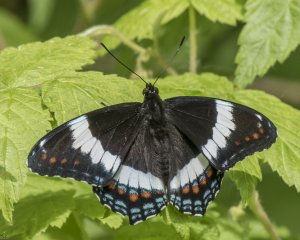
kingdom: Animalia
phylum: Arthropoda
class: Insecta
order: Lepidoptera
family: Nymphalidae
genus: Limenitis
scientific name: Limenitis arthemis
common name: Red-spotted Admiral
